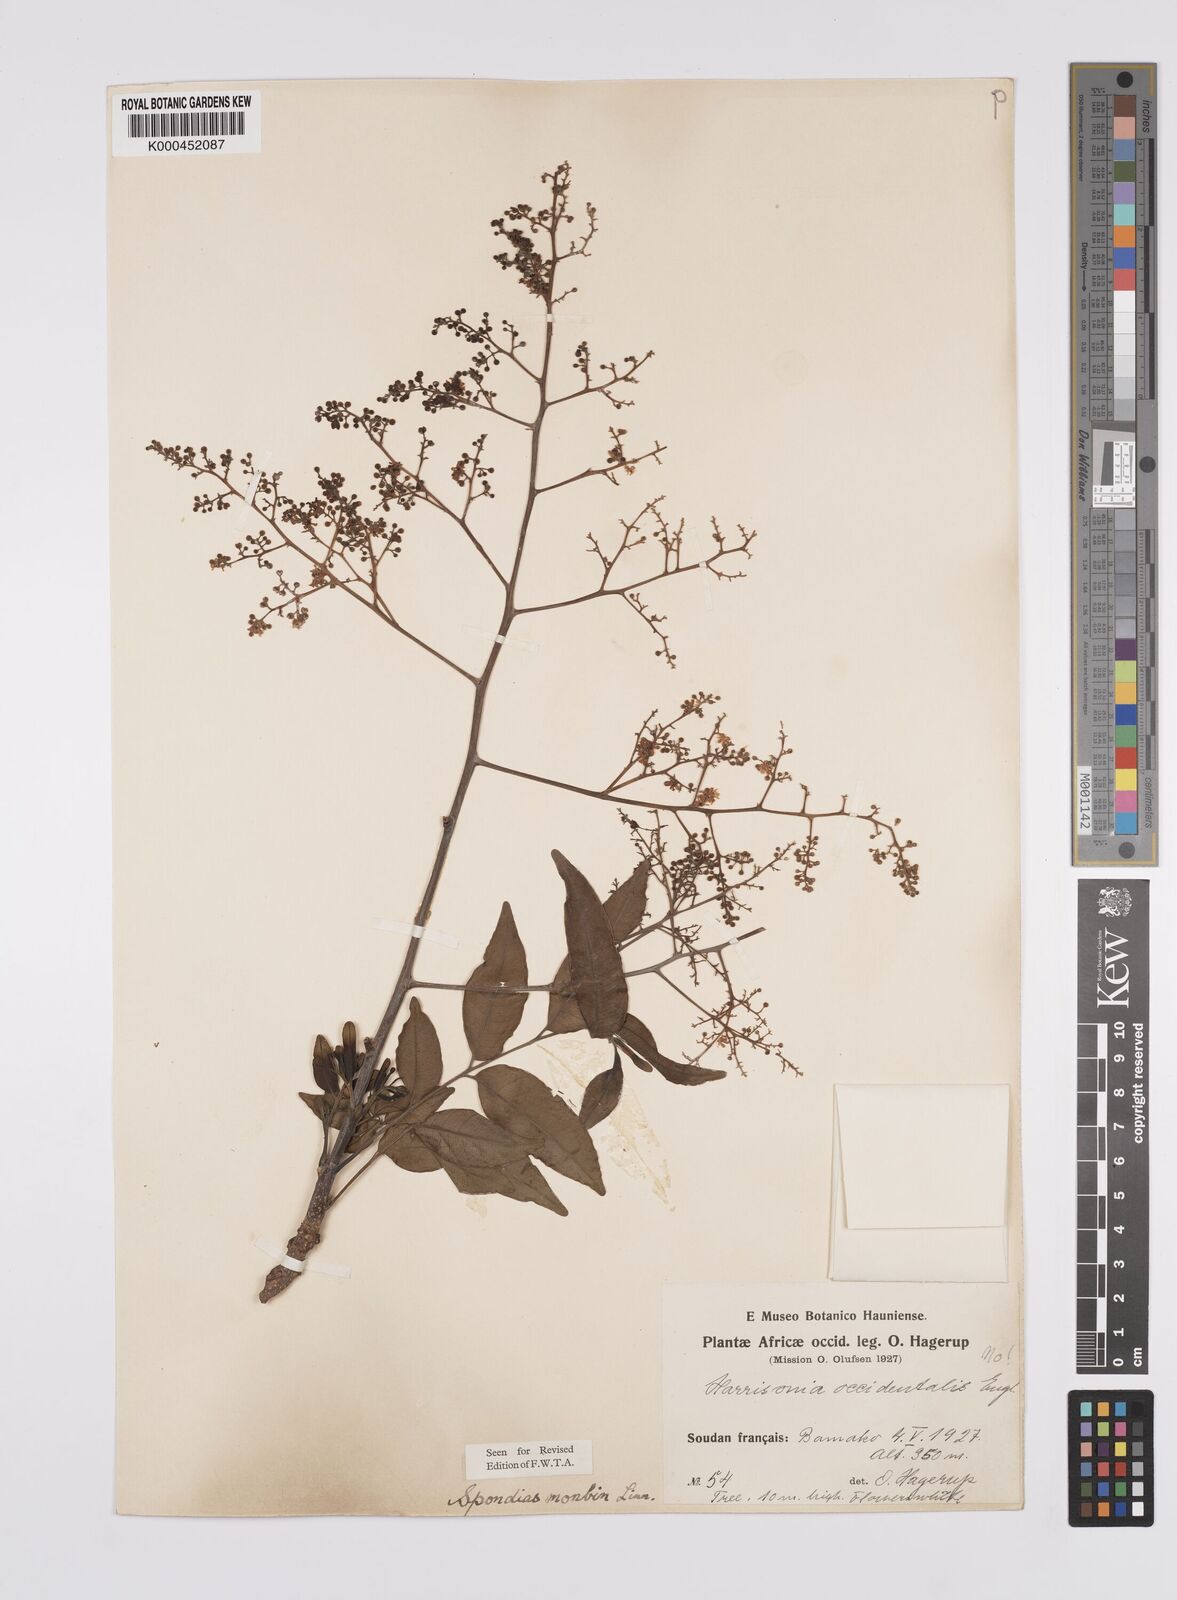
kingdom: Plantae
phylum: Tracheophyta
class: Magnoliopsida
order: Sapindales
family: Anacardiaceae
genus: Spondias
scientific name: Spondias mombin
